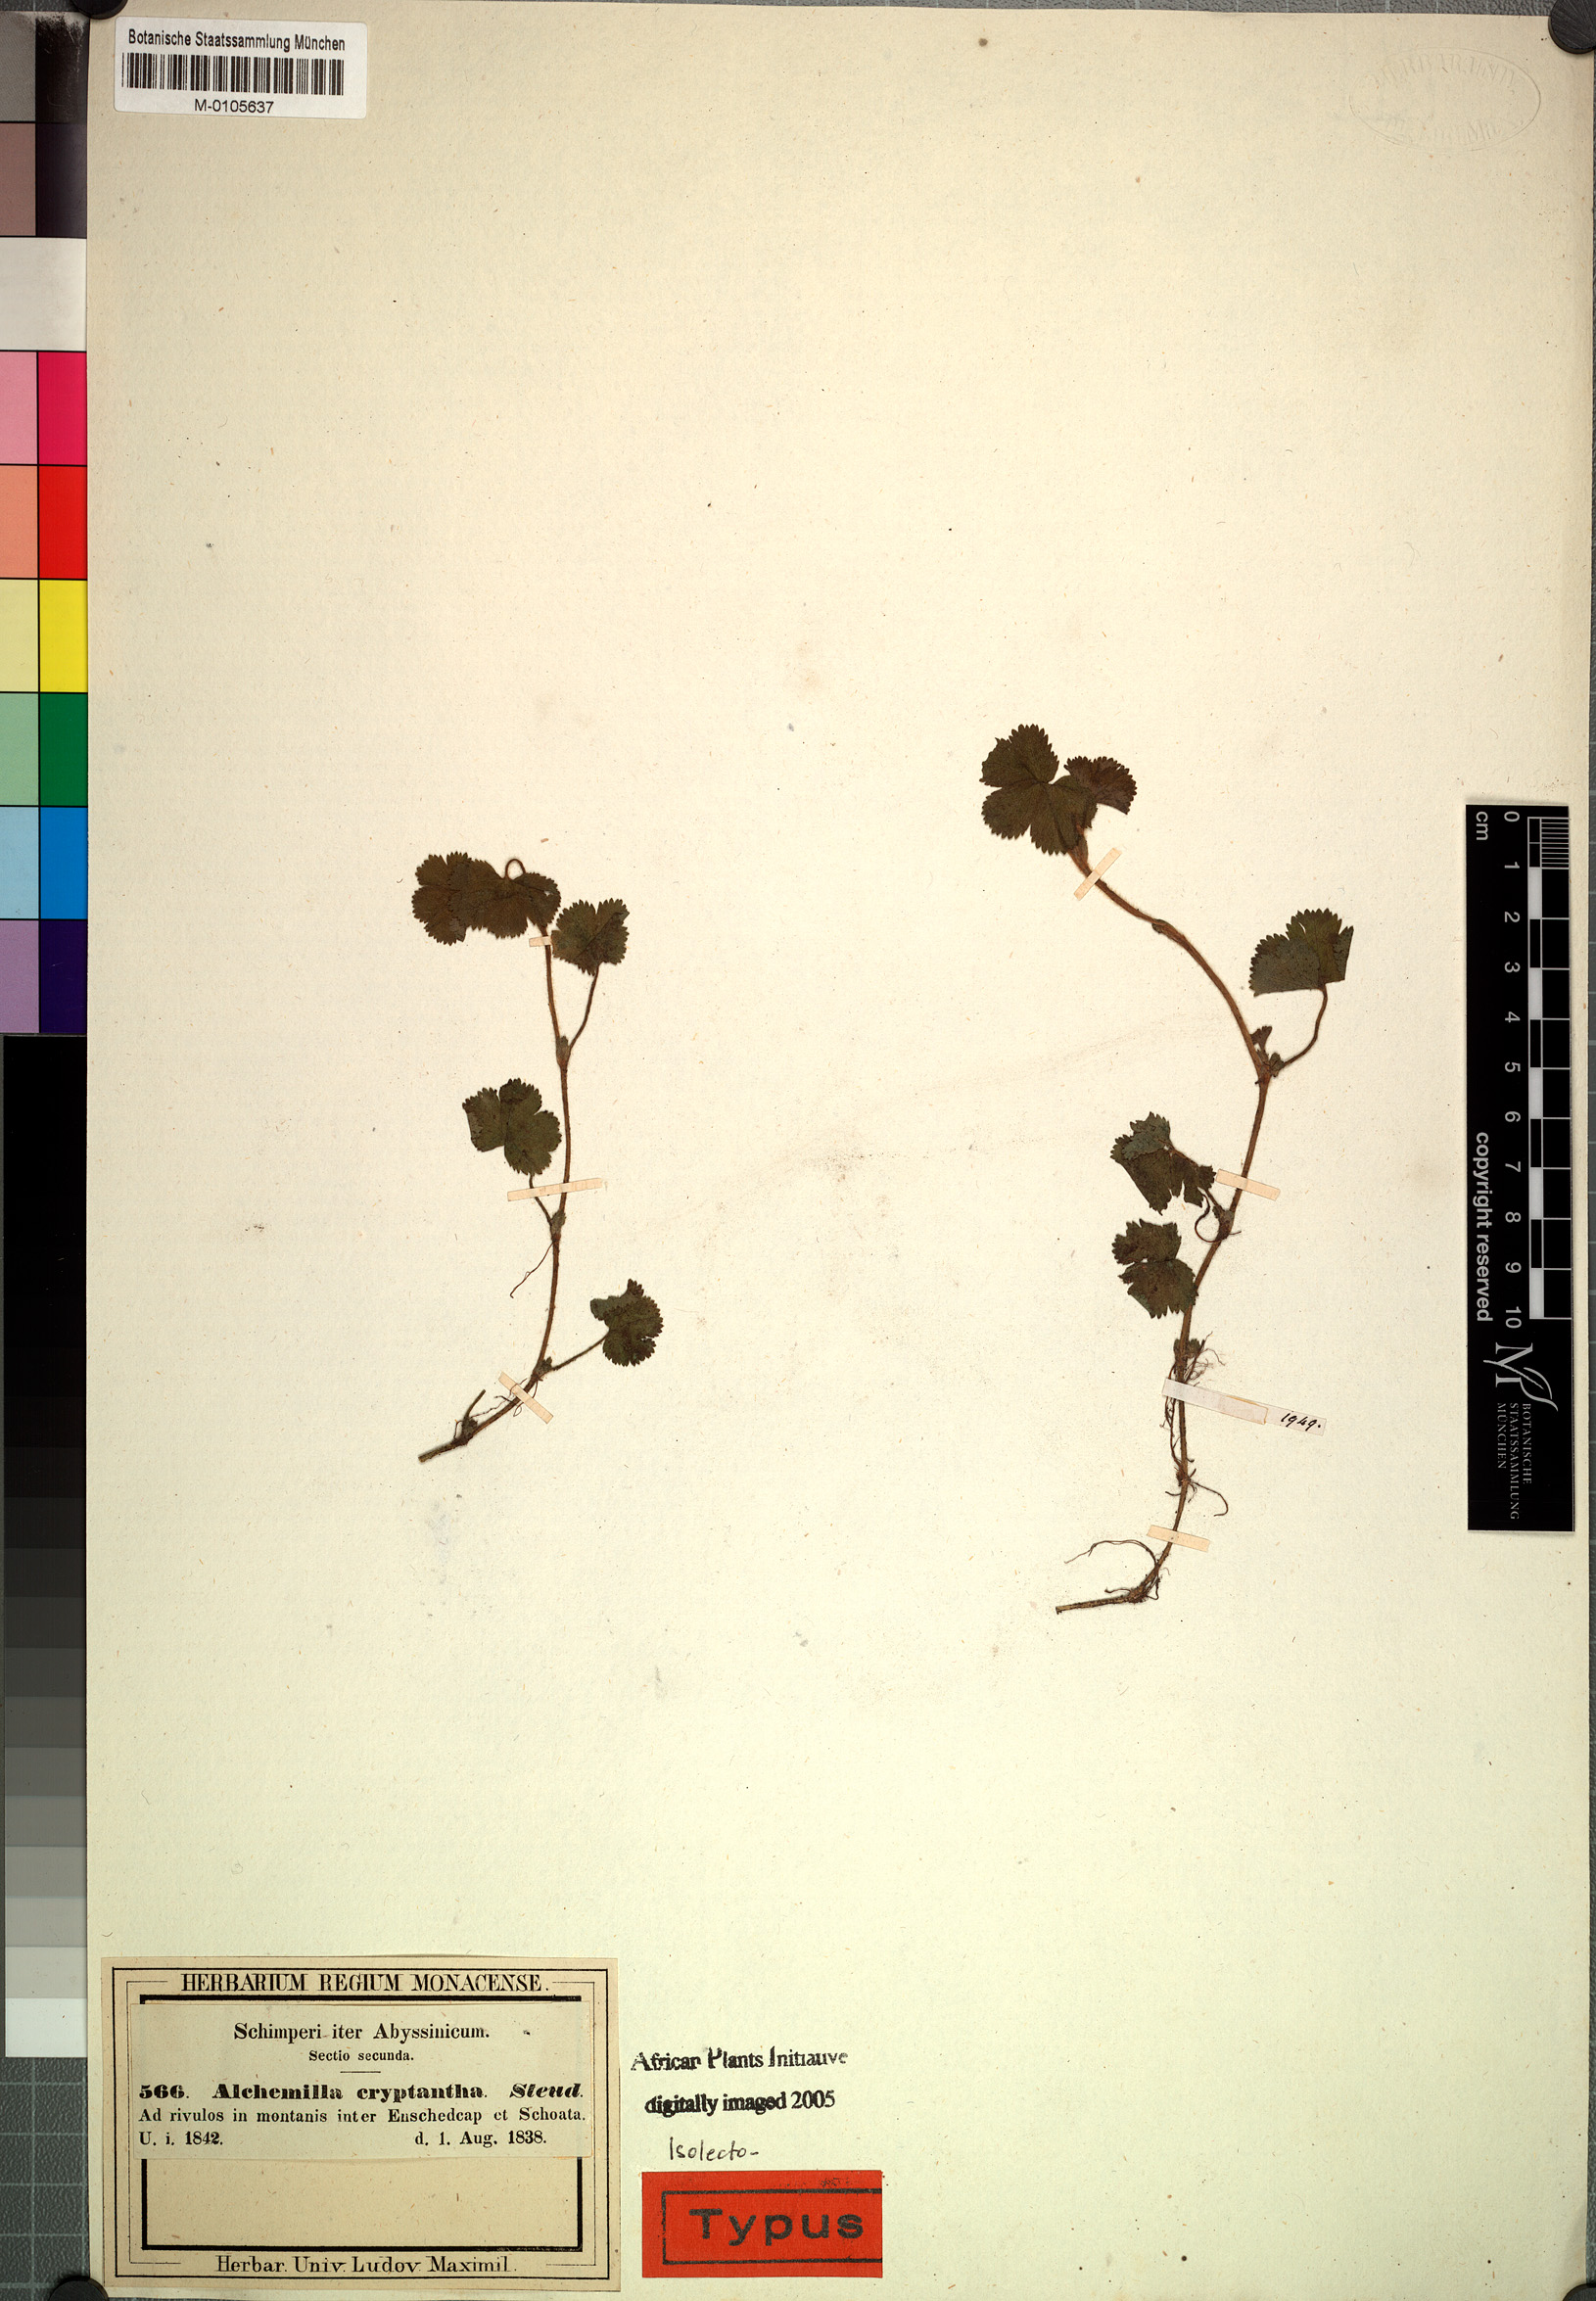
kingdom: Plantae
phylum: Tracheophyta
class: Magnoliopsida
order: Rosales
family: Rosaceae
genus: Alchemilla
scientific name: Alchemilla cryptantha
